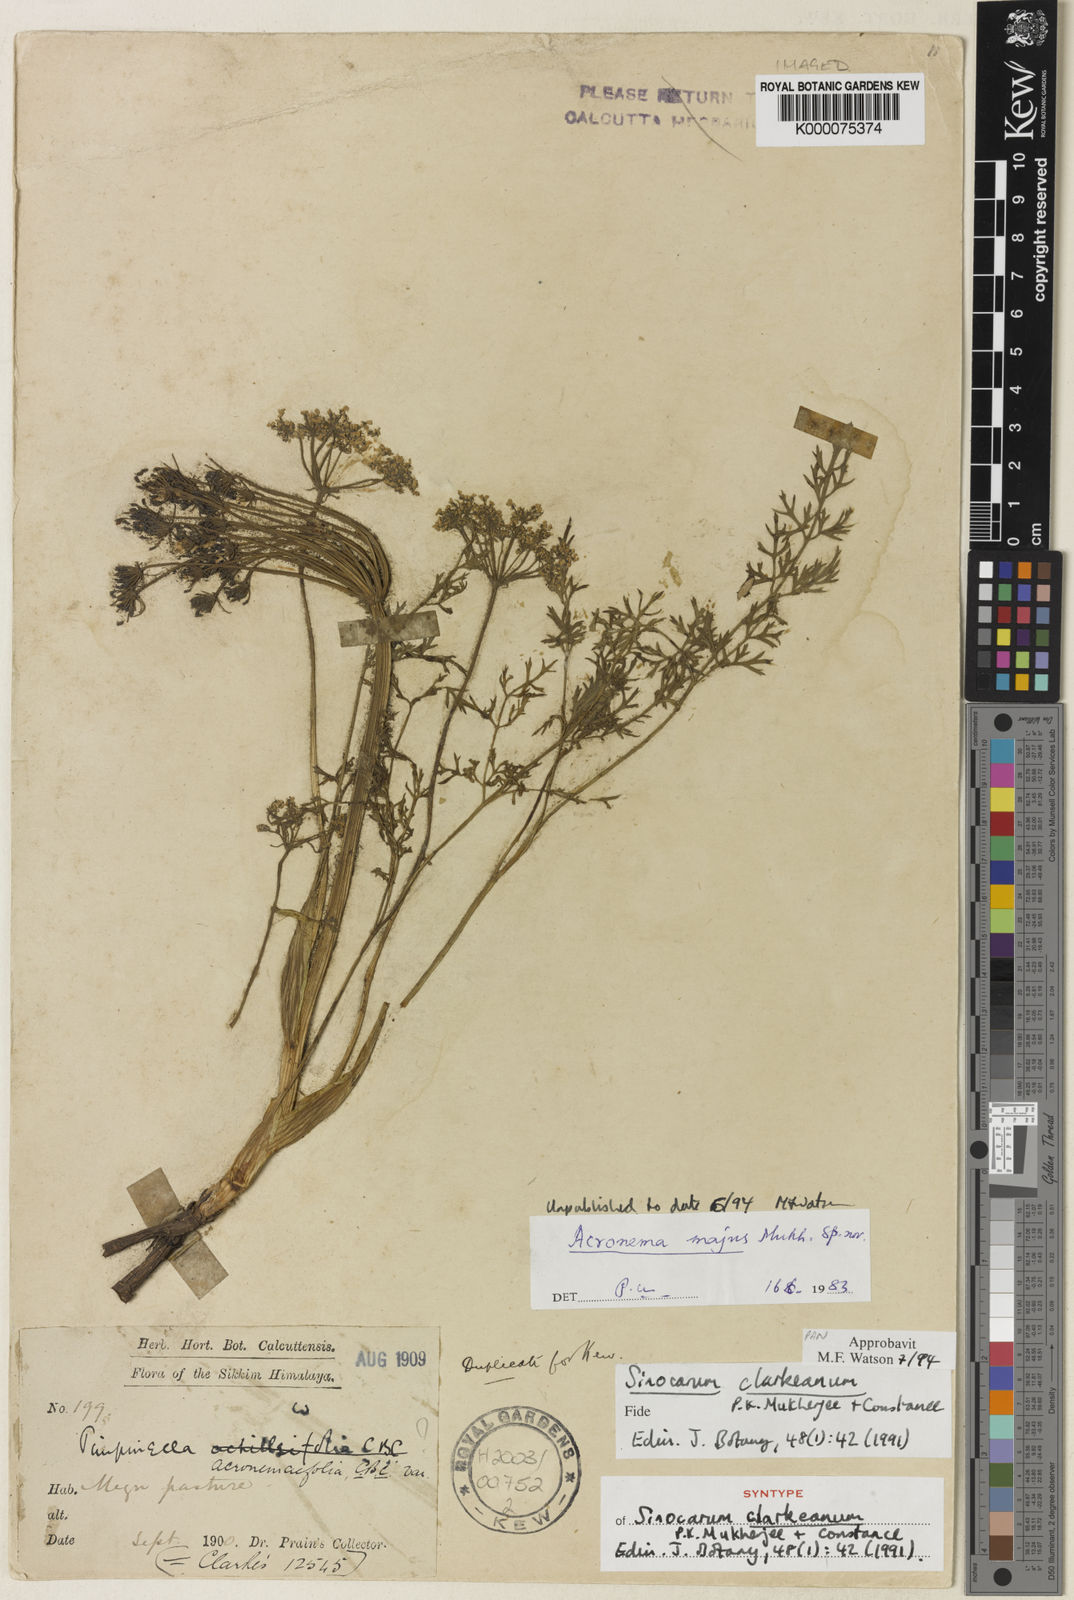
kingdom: Plantae
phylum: Tracheophyta
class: Magnoliopsida
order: Apiales
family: Apiaceae
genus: Sinocarum
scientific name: Sinocarum clarkeanum
